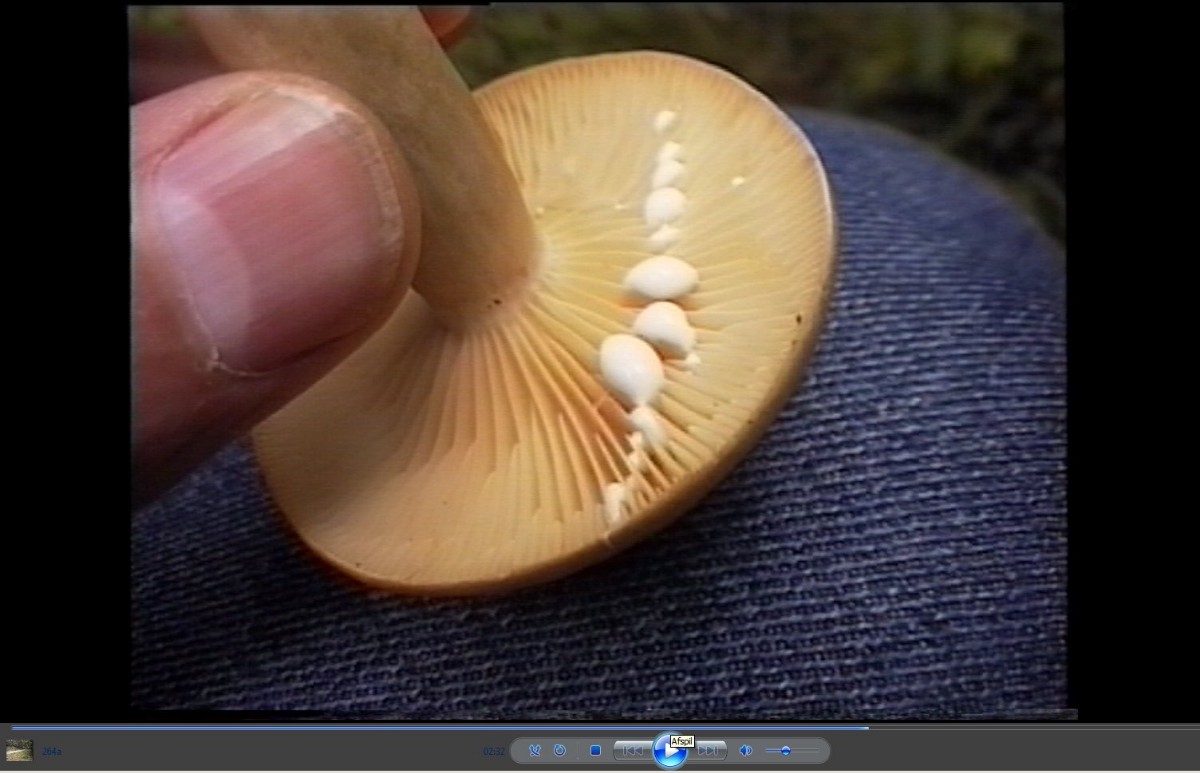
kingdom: Fungi
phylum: Basidiomycota
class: Agaricomycetes
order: Russulales
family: Russulaceae
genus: Lactarius
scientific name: Lactarius pyrogalus
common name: hassel-mælkehat
